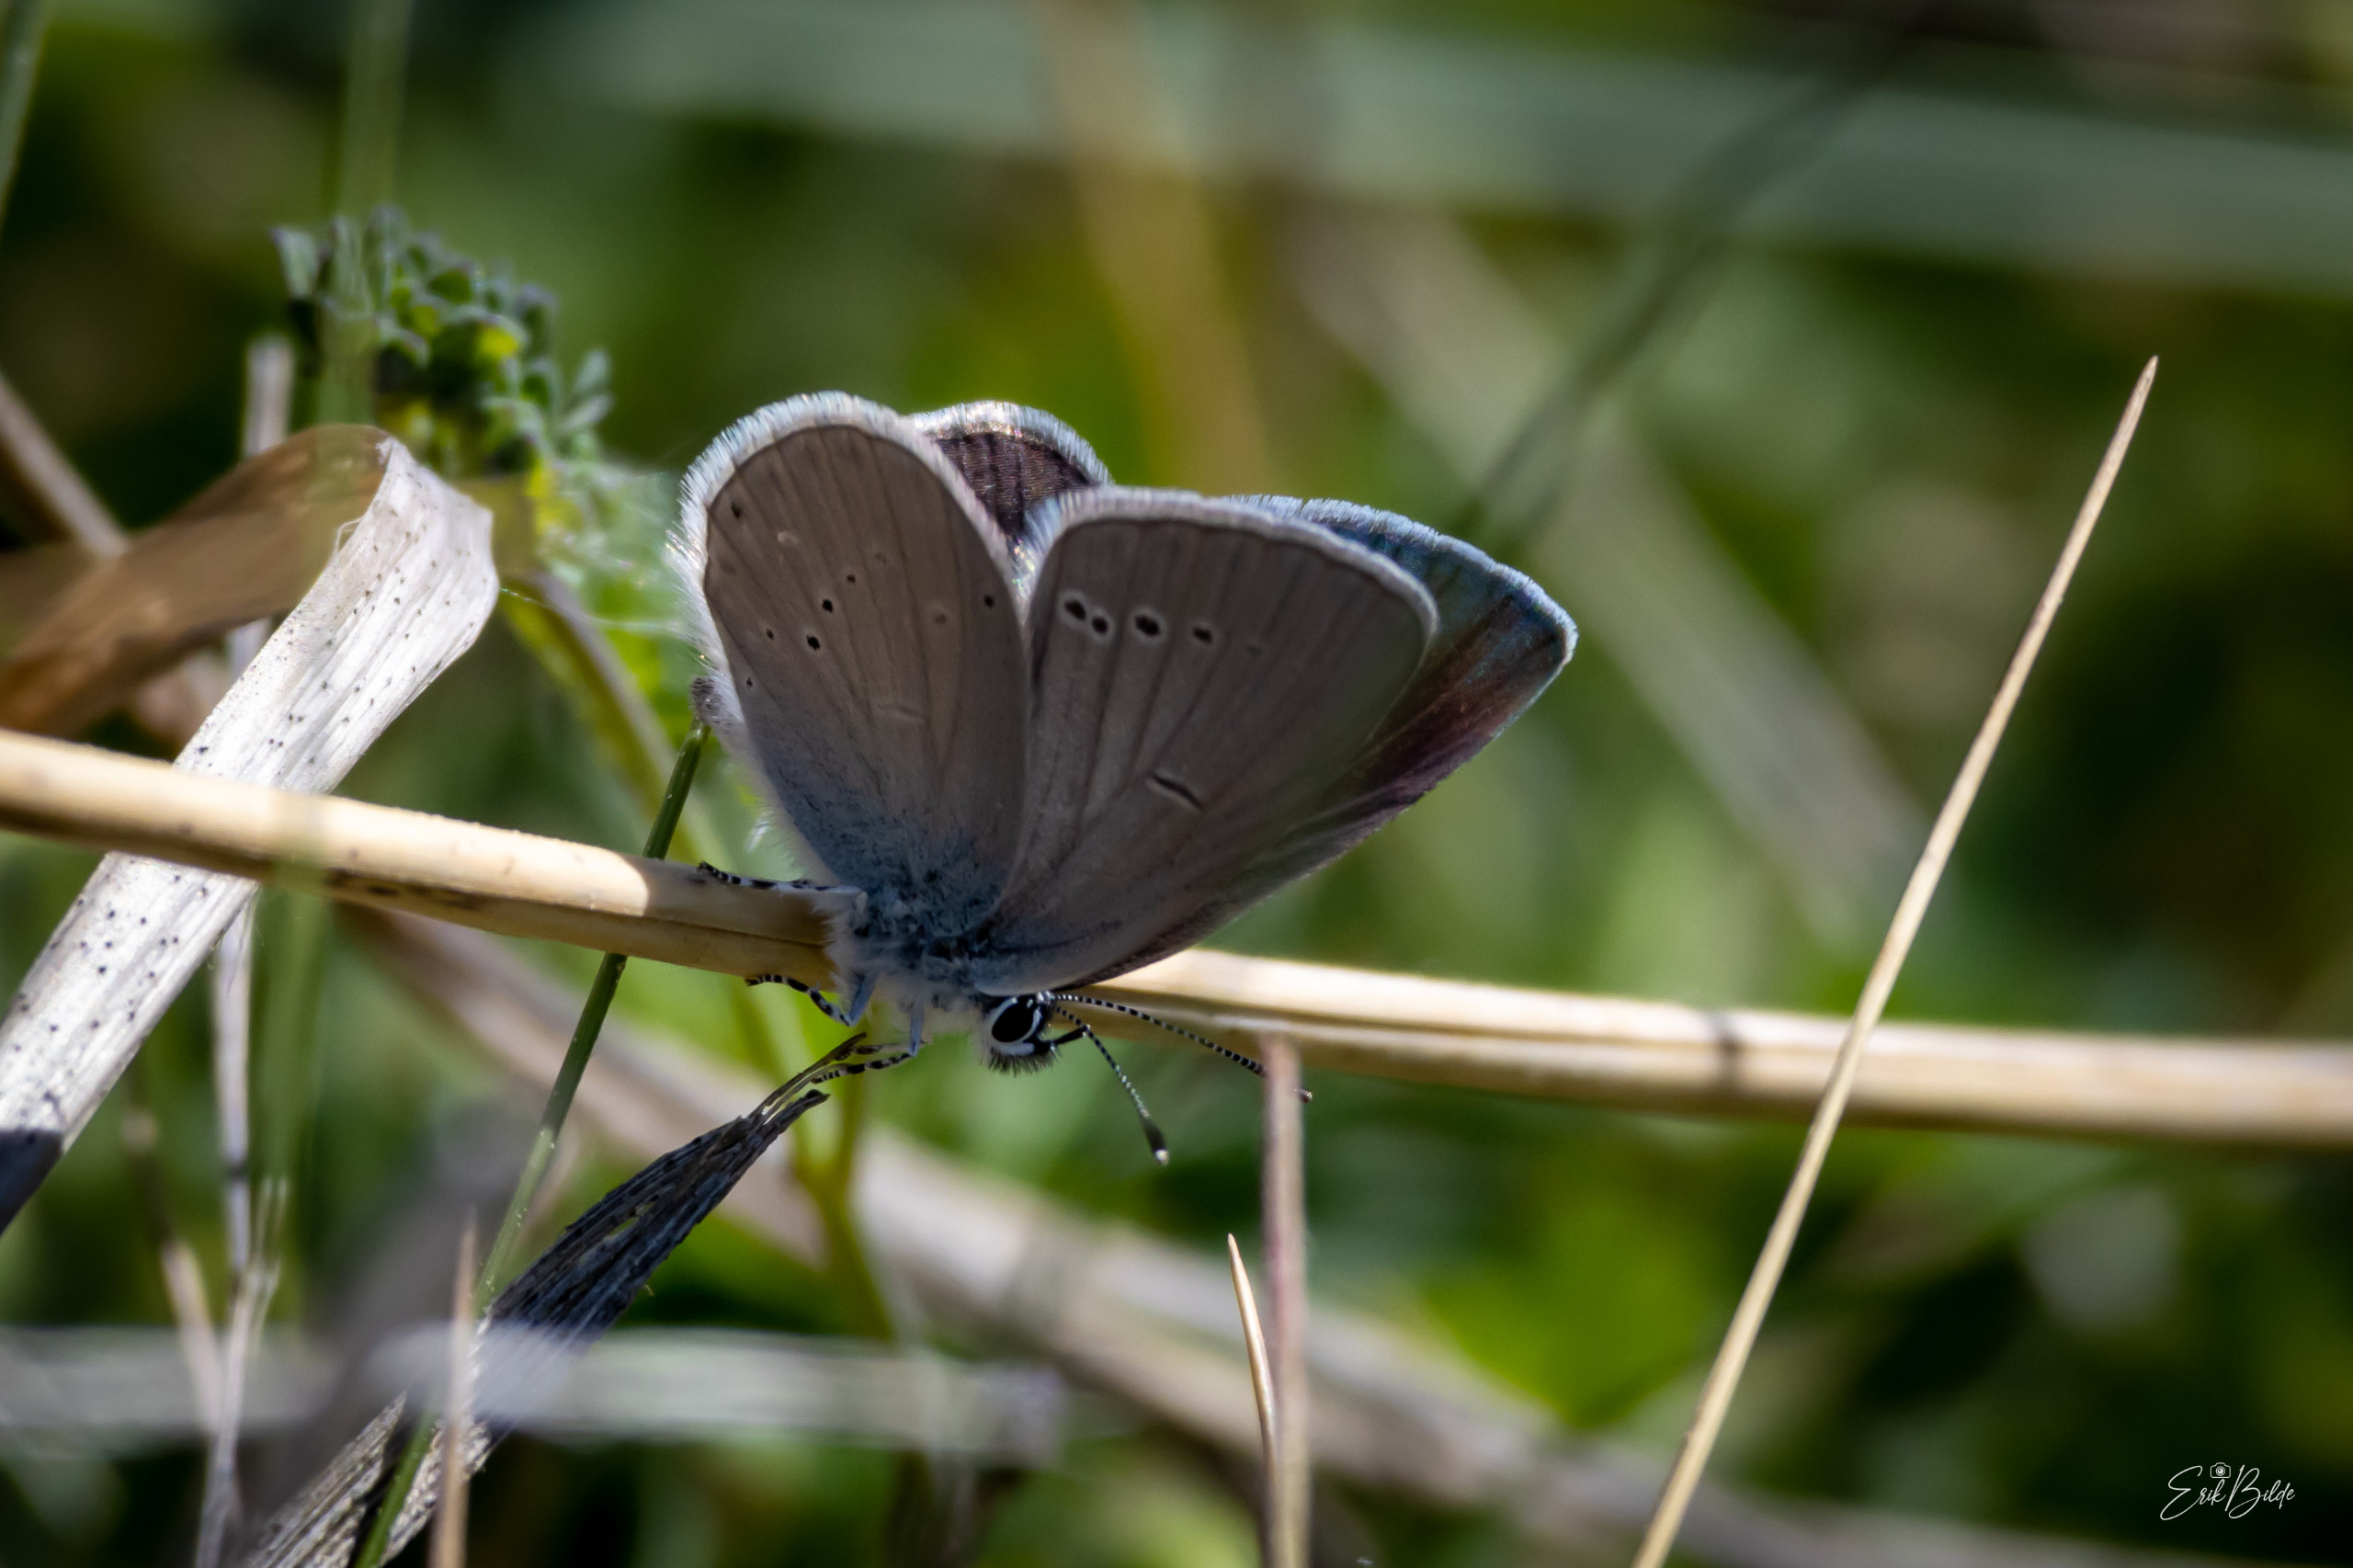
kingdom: Animalia
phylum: Arthropoda
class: Insecta
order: Lepidoptera
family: Lycaenidae
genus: Cupido
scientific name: Cupido minimus
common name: Dværgblåfugl
